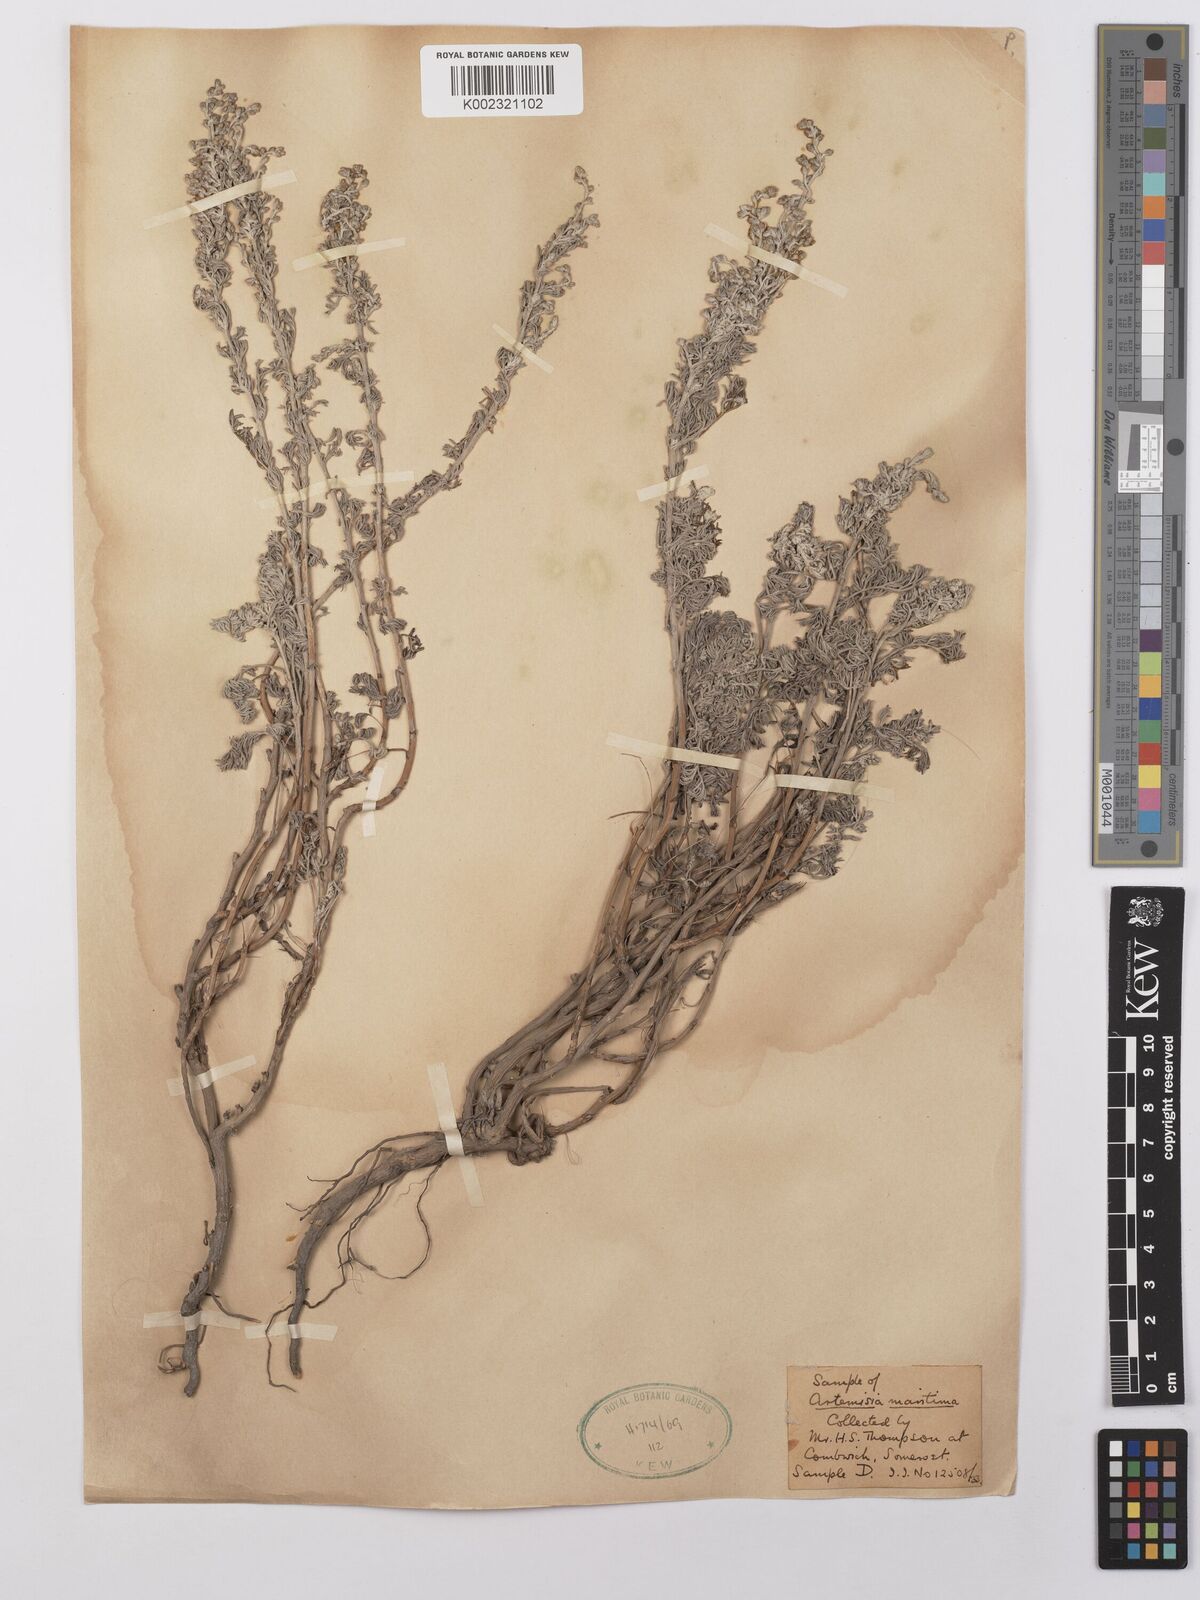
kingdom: Plantae
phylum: Tracheophyta
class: Magnoliopsida
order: Asterales
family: Asteraceae
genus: Artemisia
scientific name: Artemisia maritima
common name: Wormseed
